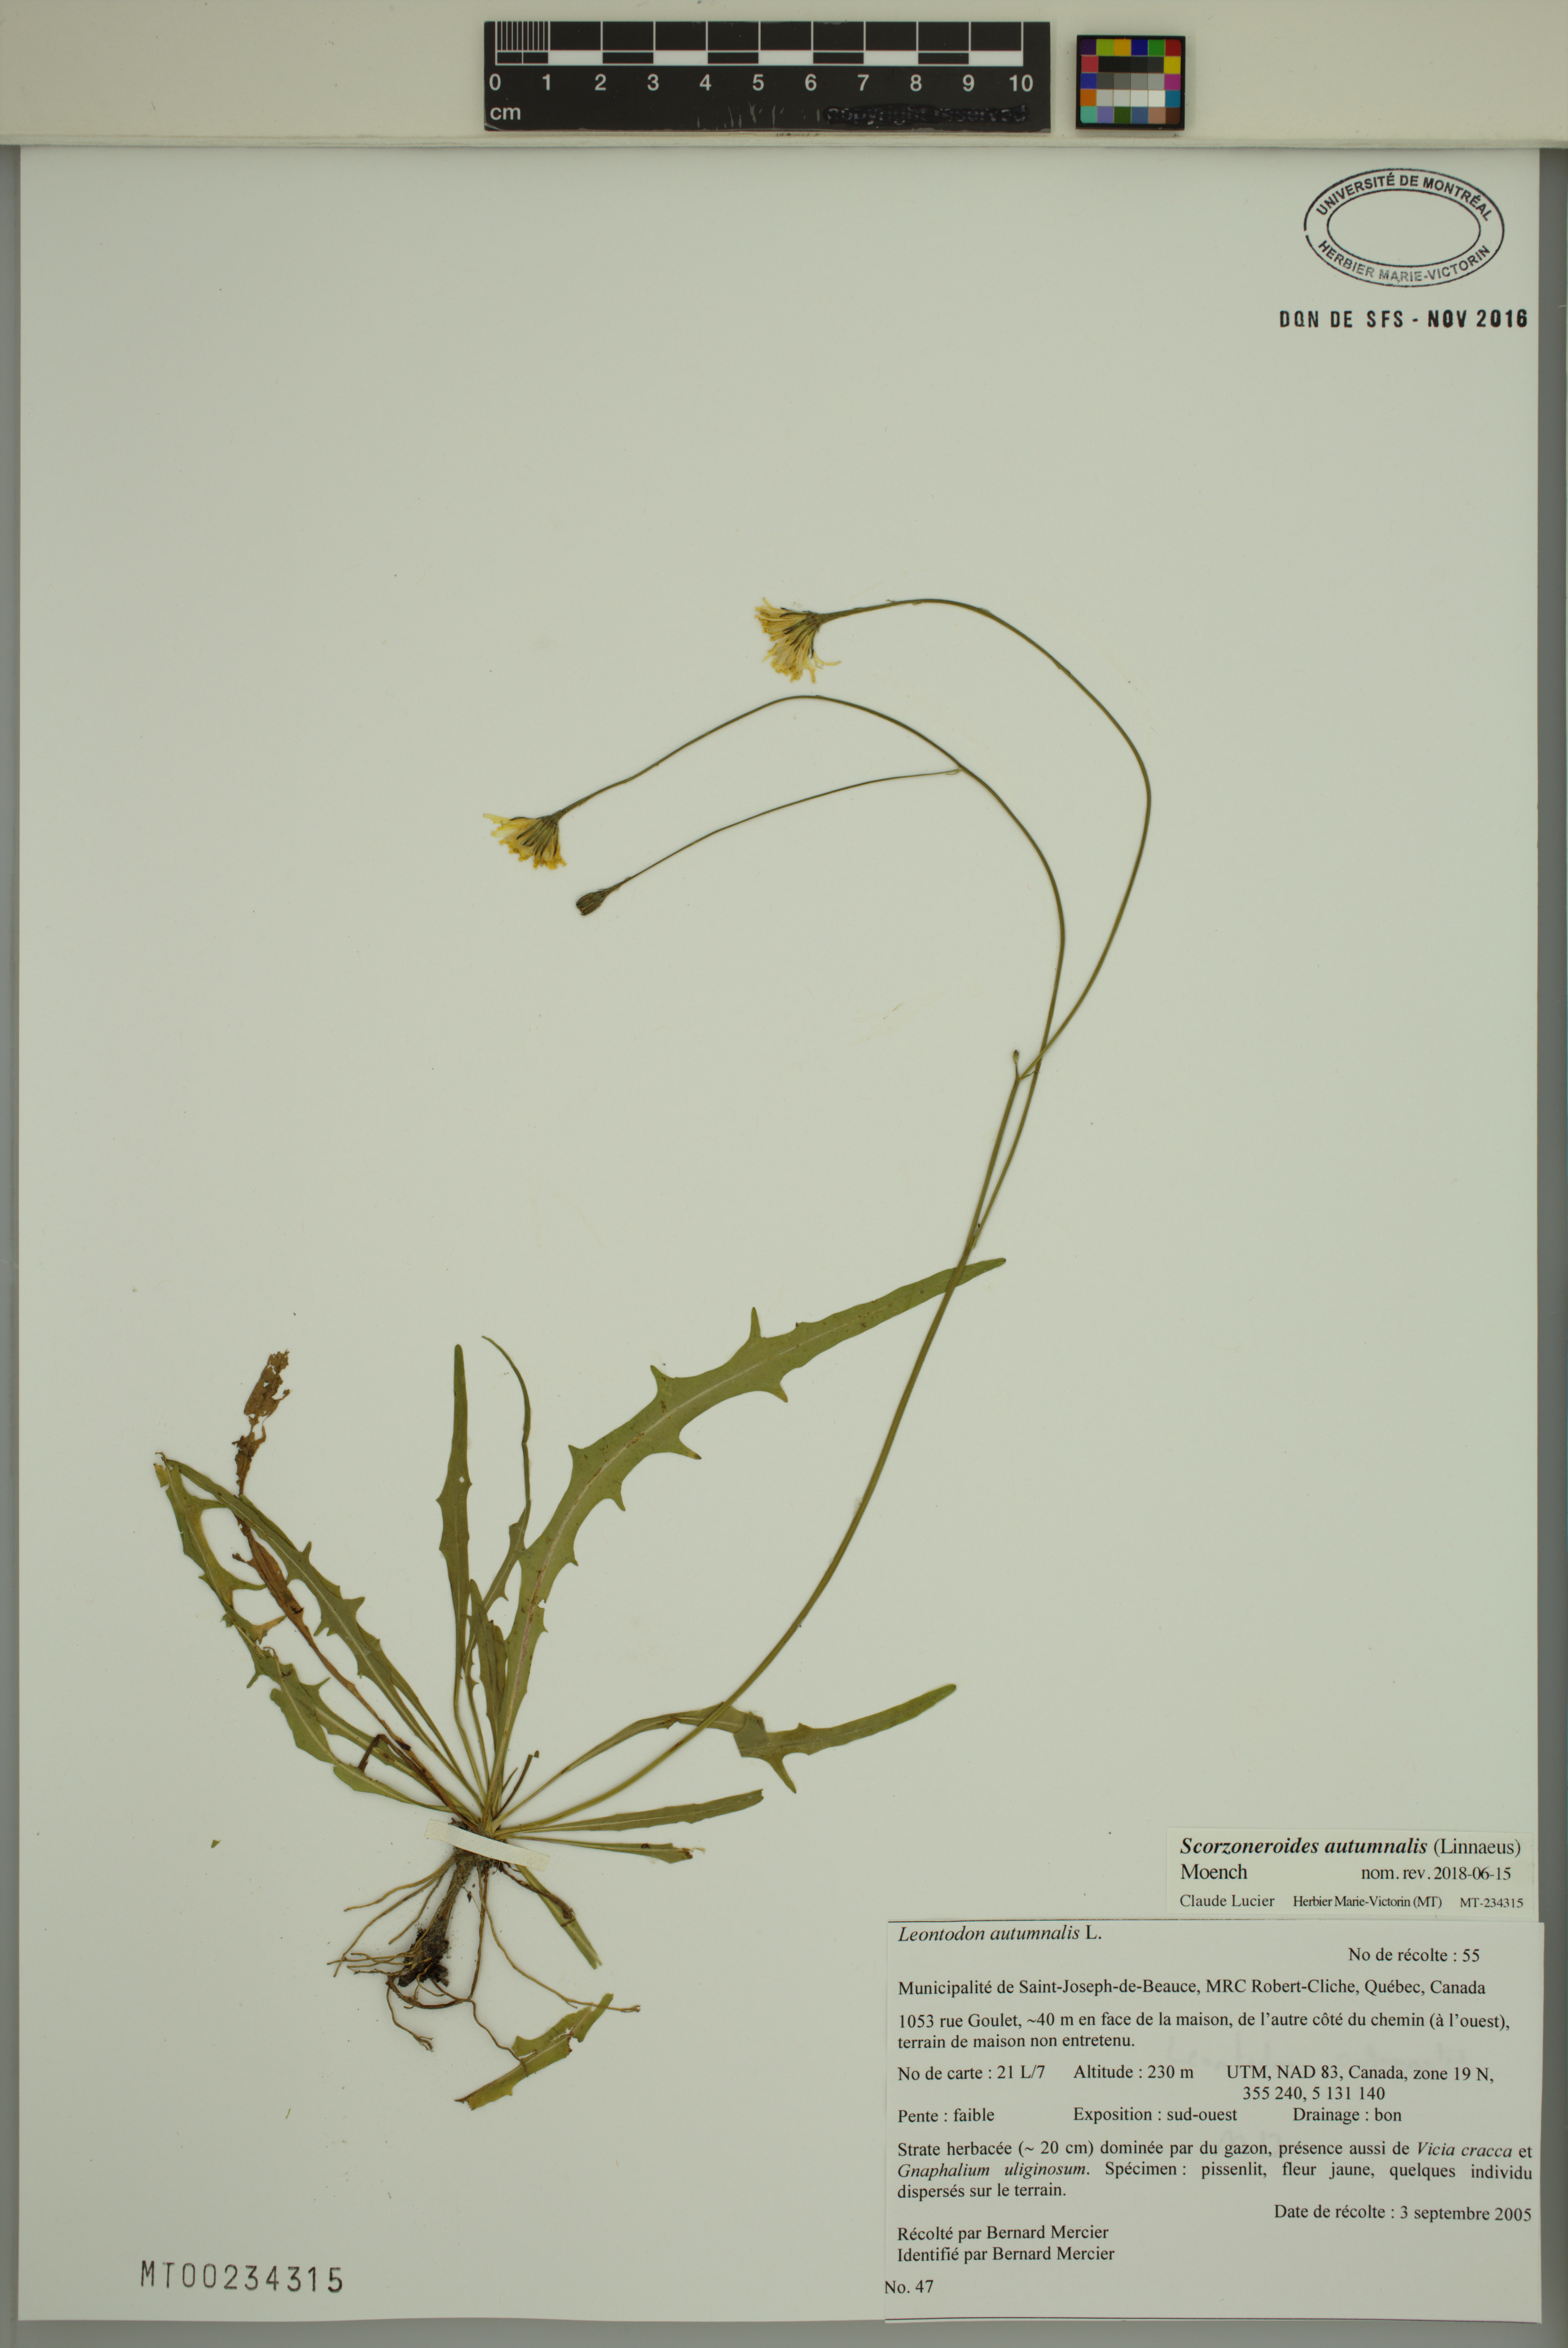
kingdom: Plantae
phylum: Tracheophyta
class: Magnoliopsida
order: Asterales
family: Asteraceae
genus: Scorzoneroides
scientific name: Scorzoneroides autumnalis
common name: Autumn hawkbit
